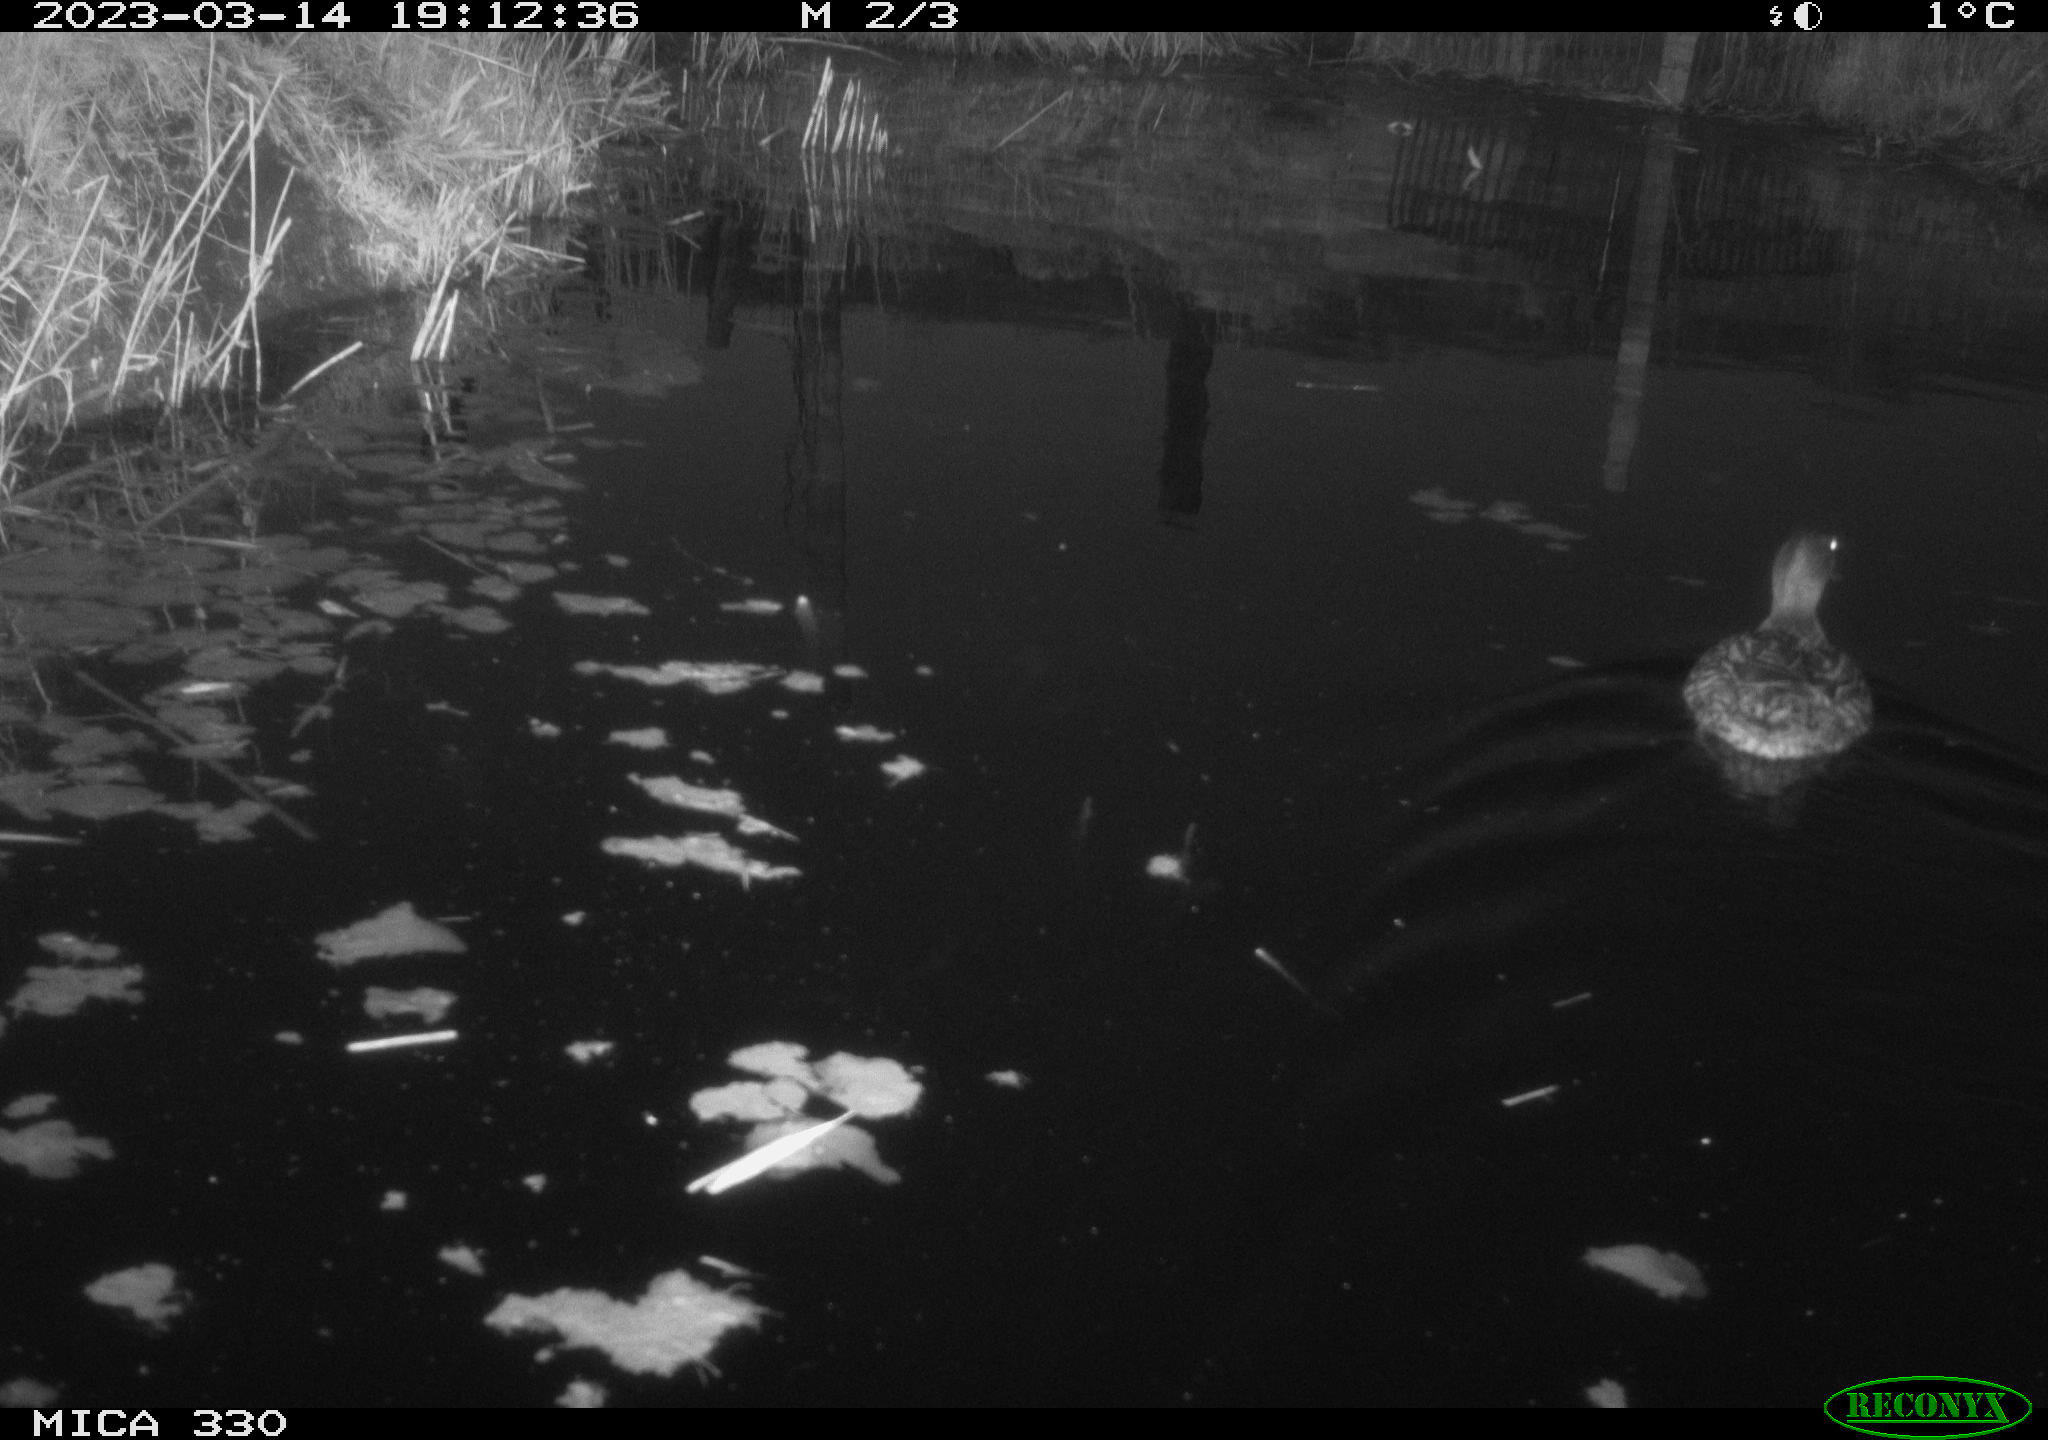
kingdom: Animalia
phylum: Chordata
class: Aves
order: Anseriformes
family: Anatidae
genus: Anas
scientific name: Anas
